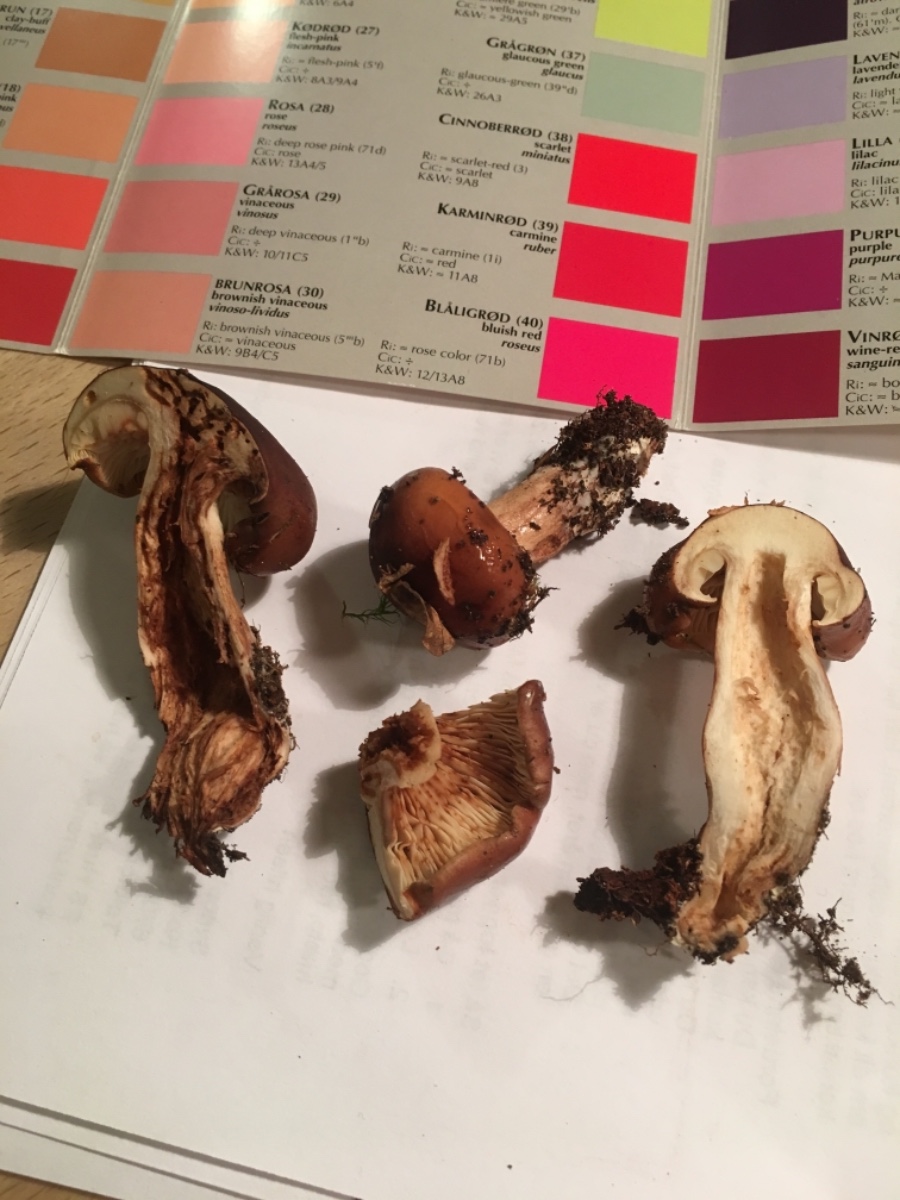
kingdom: Fungi
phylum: Basidiomycota
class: Agaricomycetes
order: Agaricales
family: Tricholomataceae
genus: Tricholoma
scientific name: Tricholoma ustale
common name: sveden ridderhat
